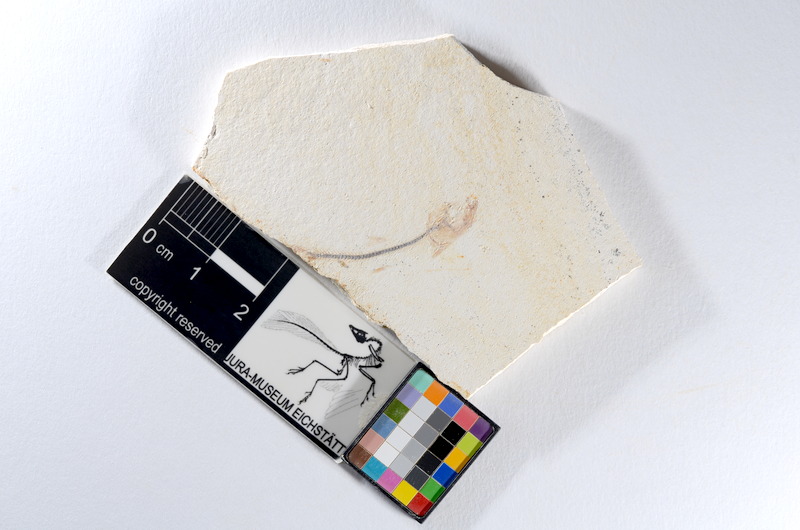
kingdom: Animalia
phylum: Chordata
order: Salmoniformes
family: Orthogonikleithridae
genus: Orthogonikleithrus
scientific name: Orthogonikleithrus hoelli
